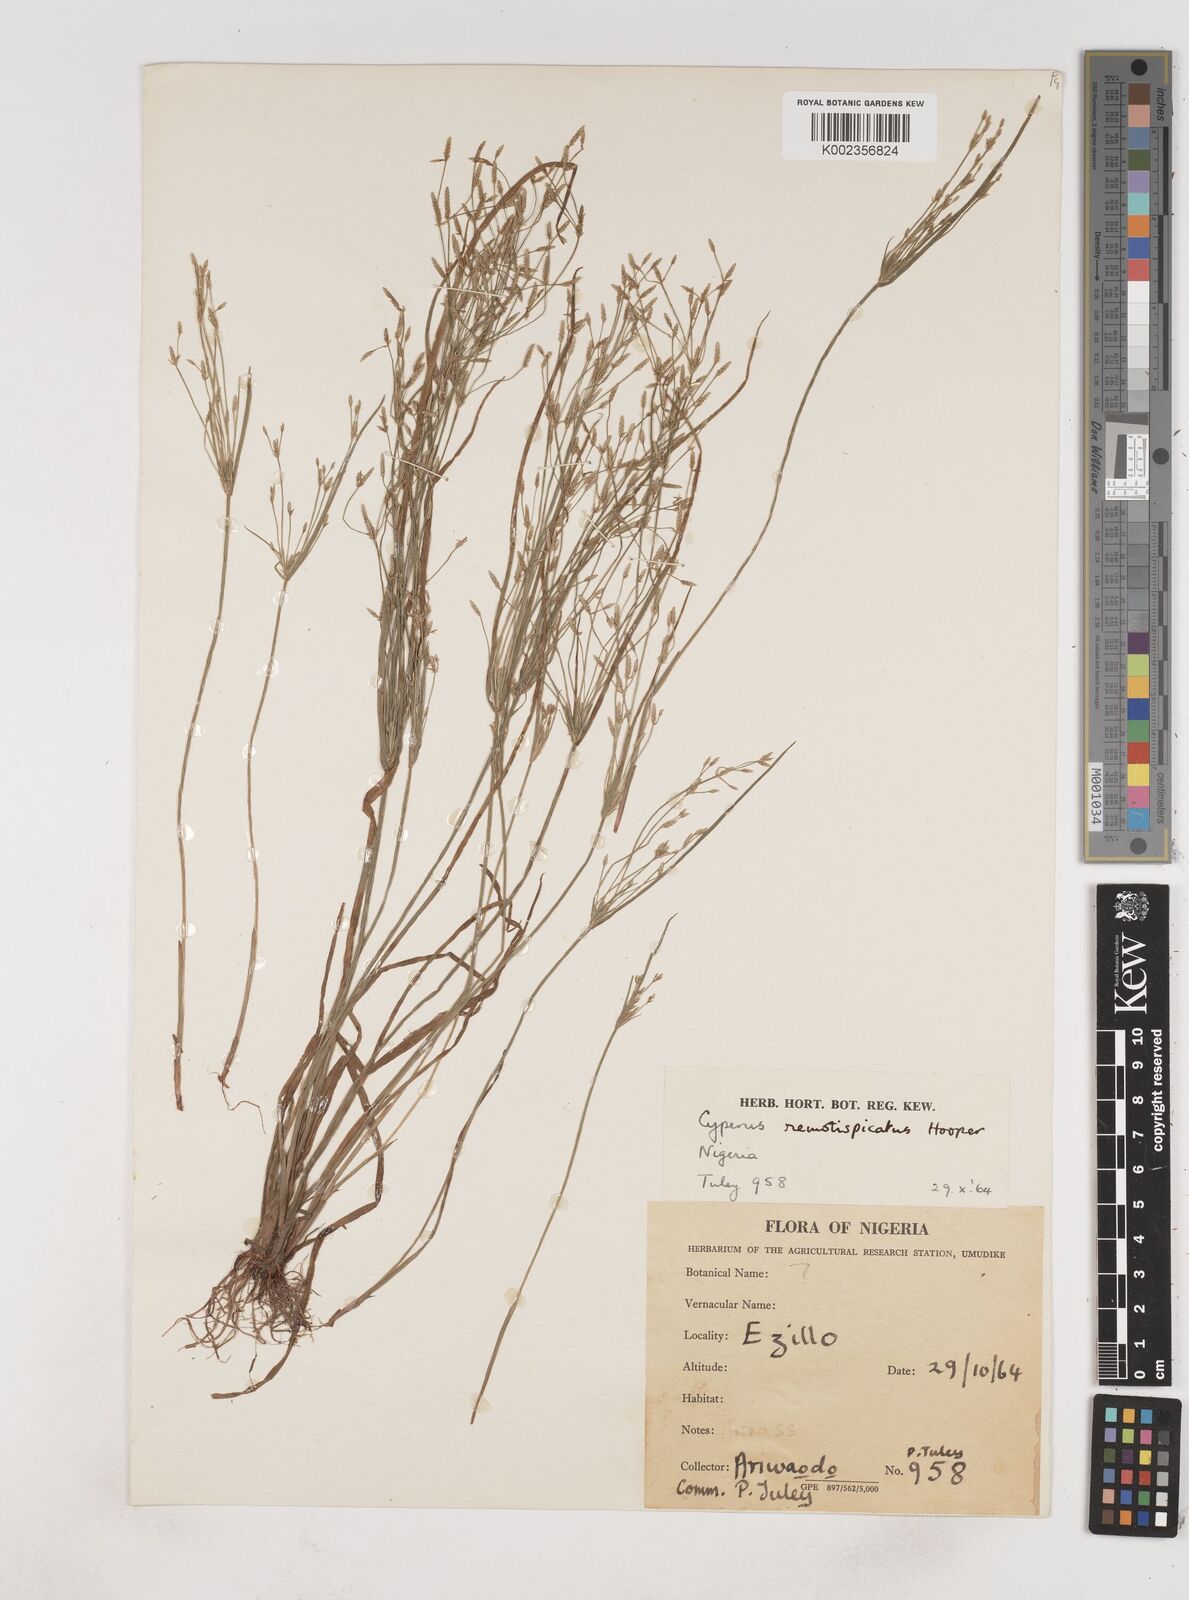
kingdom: Plantae
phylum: Tracheophyta
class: Liliopsida
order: Poales
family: Cyperaceae
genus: Cyperus
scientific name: Cyperus remotispicatus
